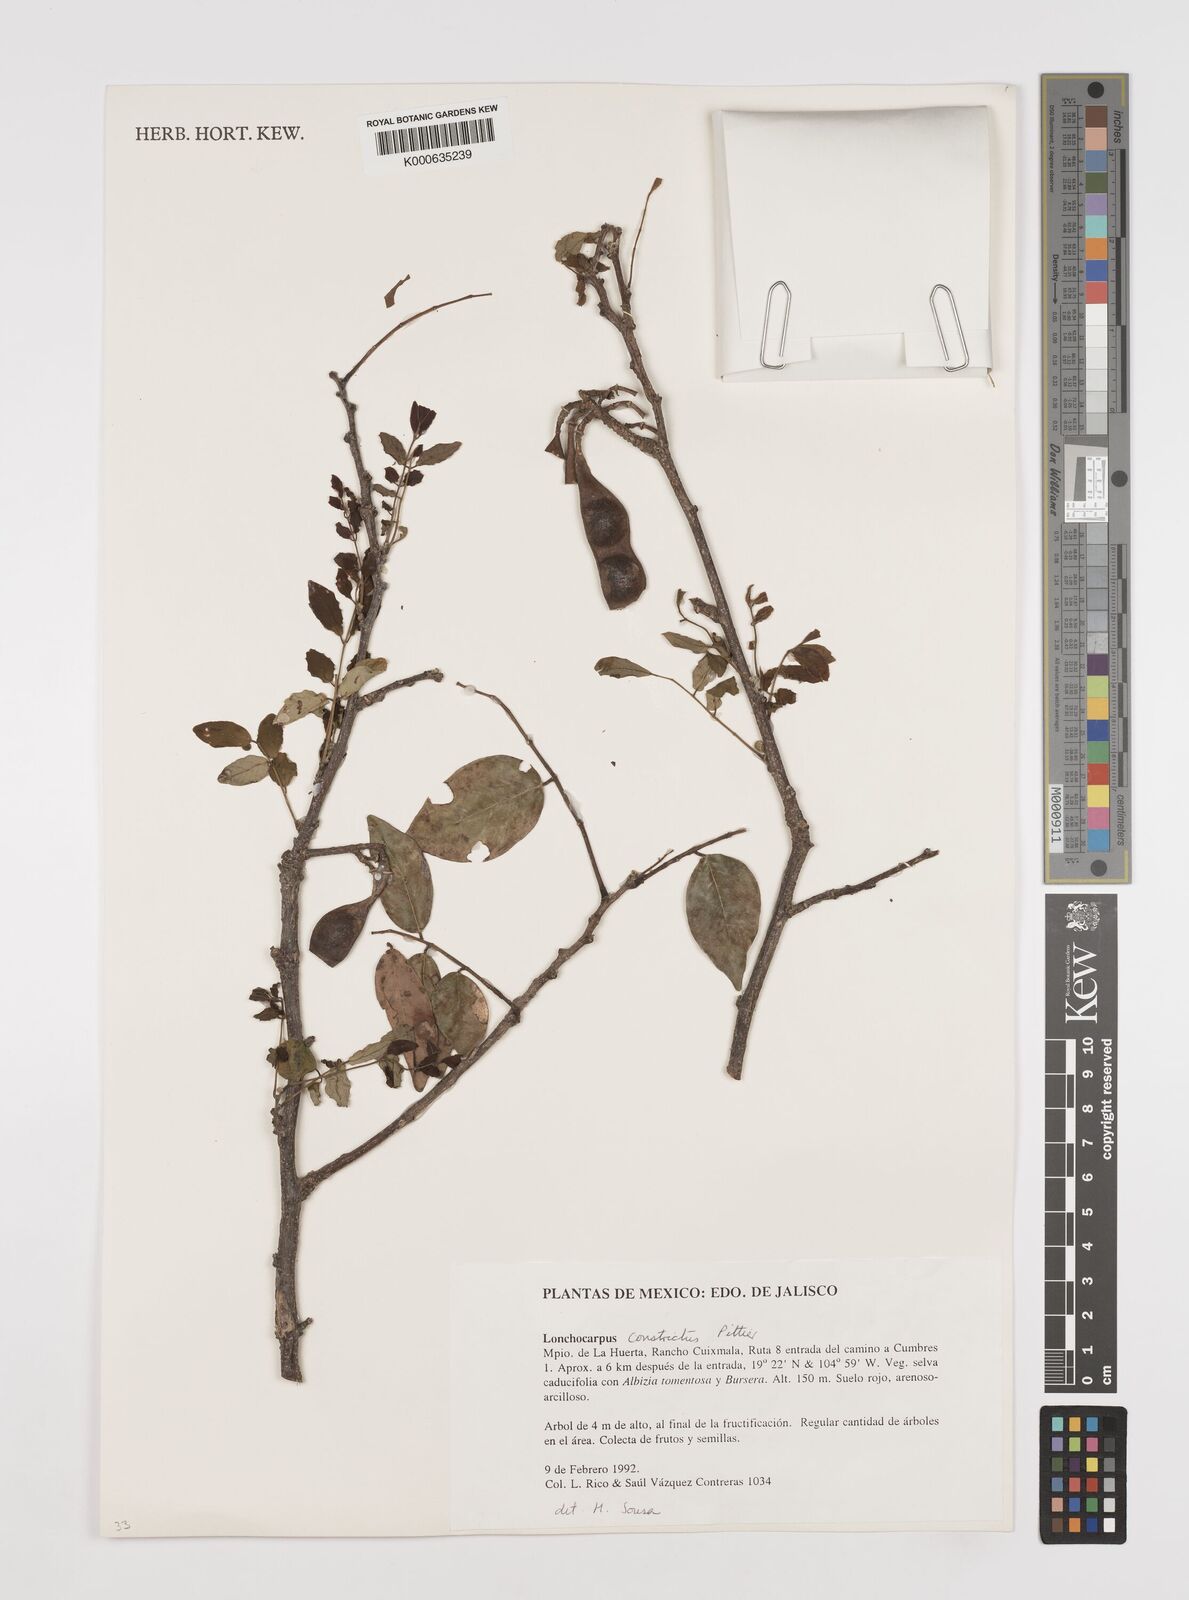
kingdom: Plantae
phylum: Tracheophyta
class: Magnoliopsida
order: Fabales
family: Fabaceae
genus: Lonchocarpus
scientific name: Lonchocarpus constrictus
